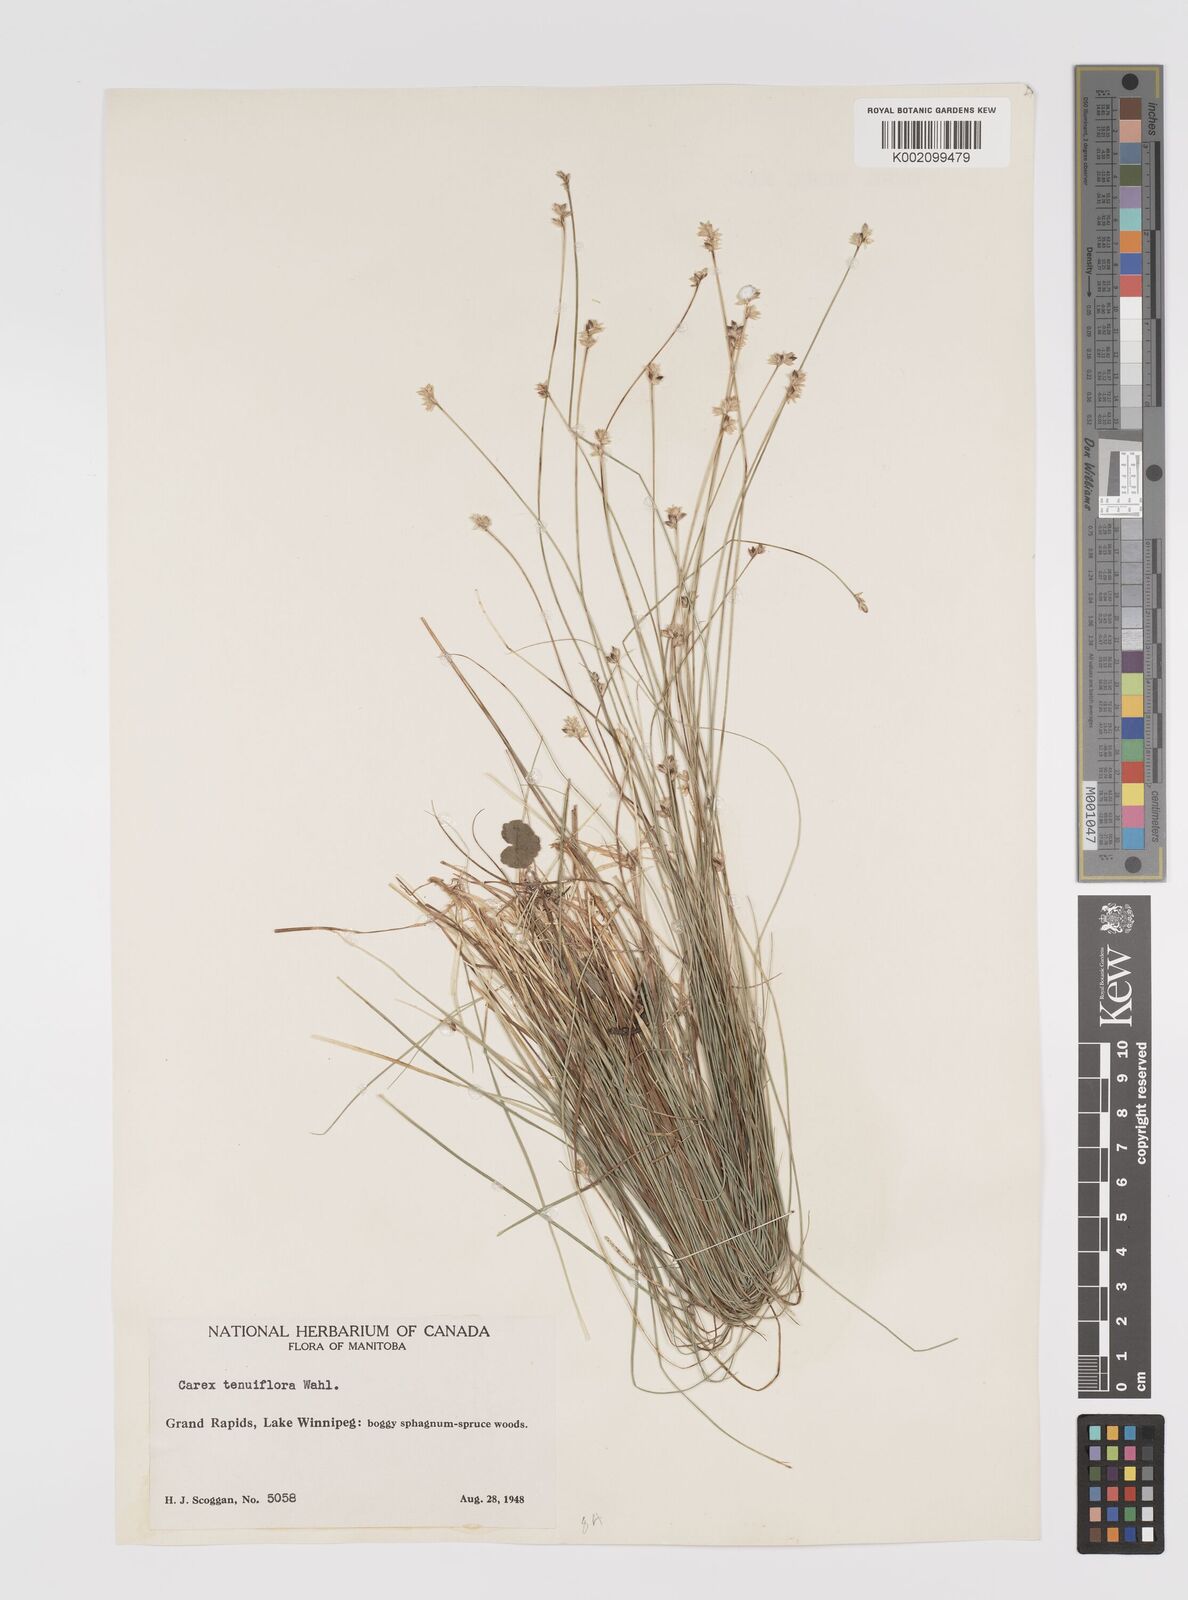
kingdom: Plantae
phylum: Tracheophyta
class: Liliopsida
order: Poales
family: Cyperaceae
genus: Carex
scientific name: Carex tenuiflora
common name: Sparse-flowered sedge
